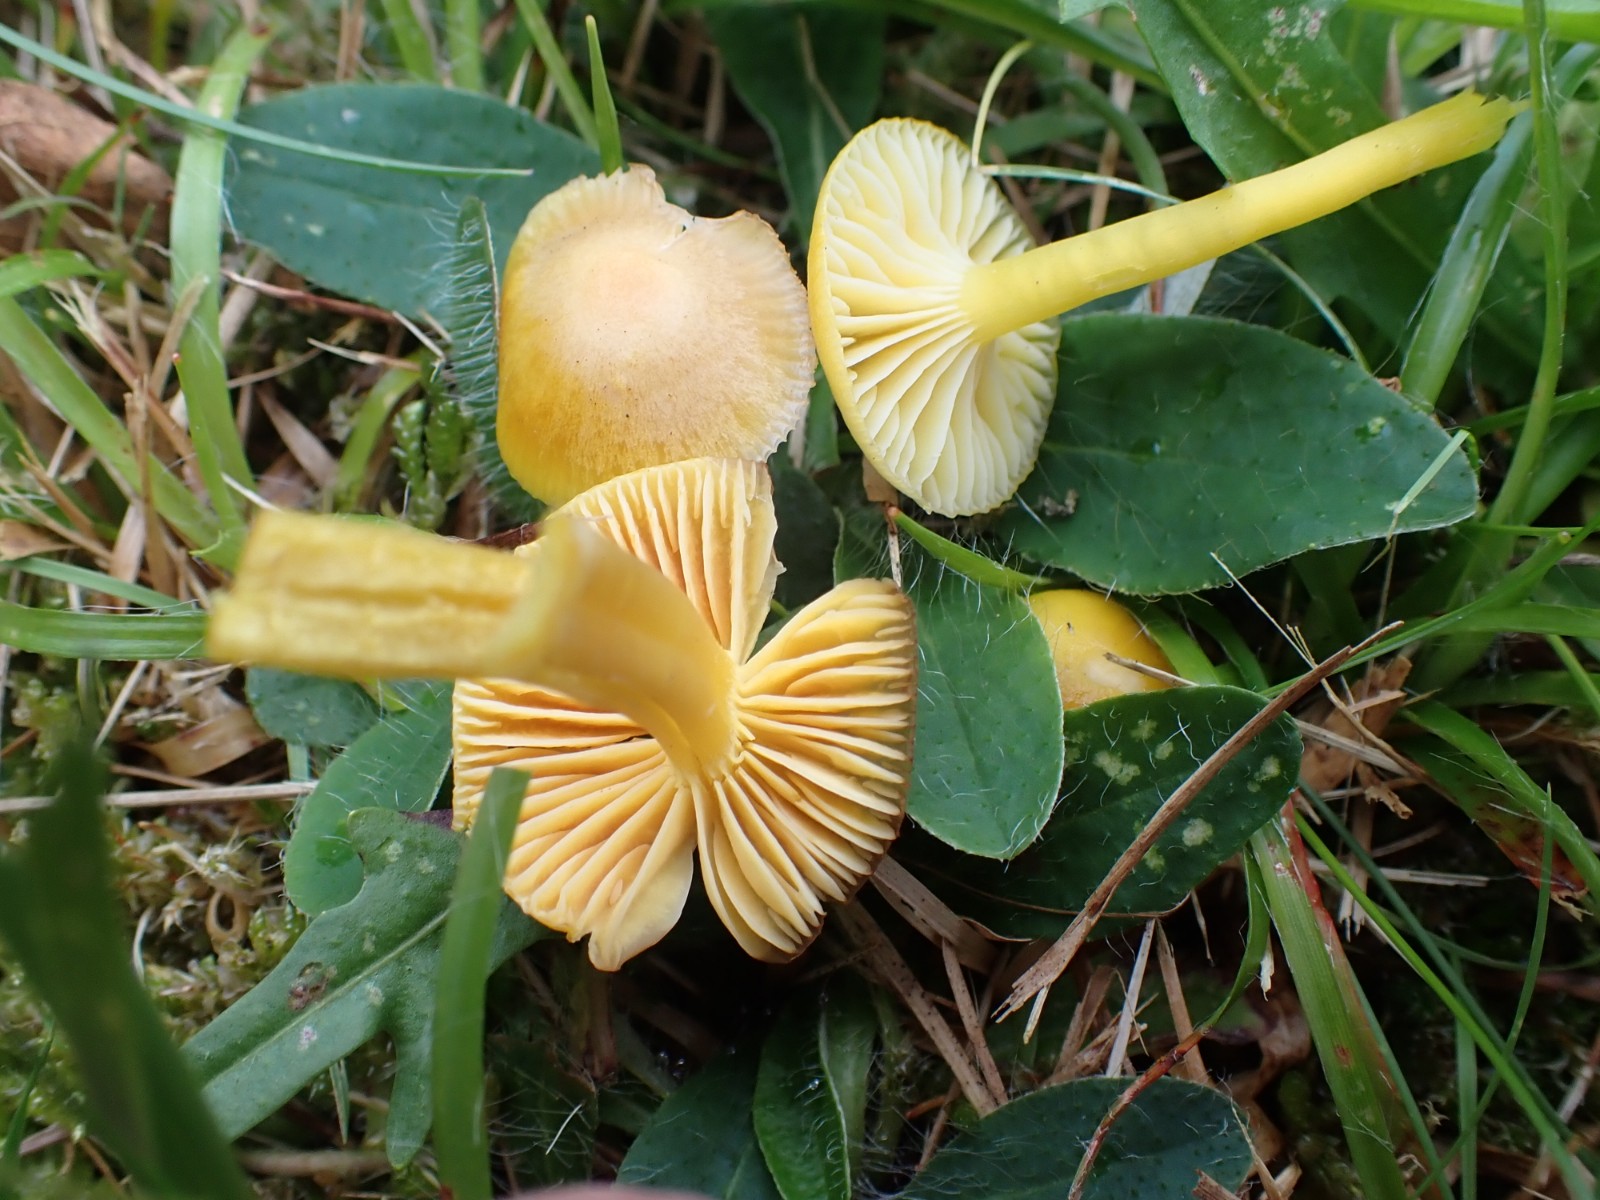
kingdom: Fungi
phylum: Basidiomycota
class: Agaricomycetes
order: Agaricales
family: Hygrophoraceae
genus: Hygrocybe
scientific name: Hygrocybe ceracea
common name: voksgul vokshat
